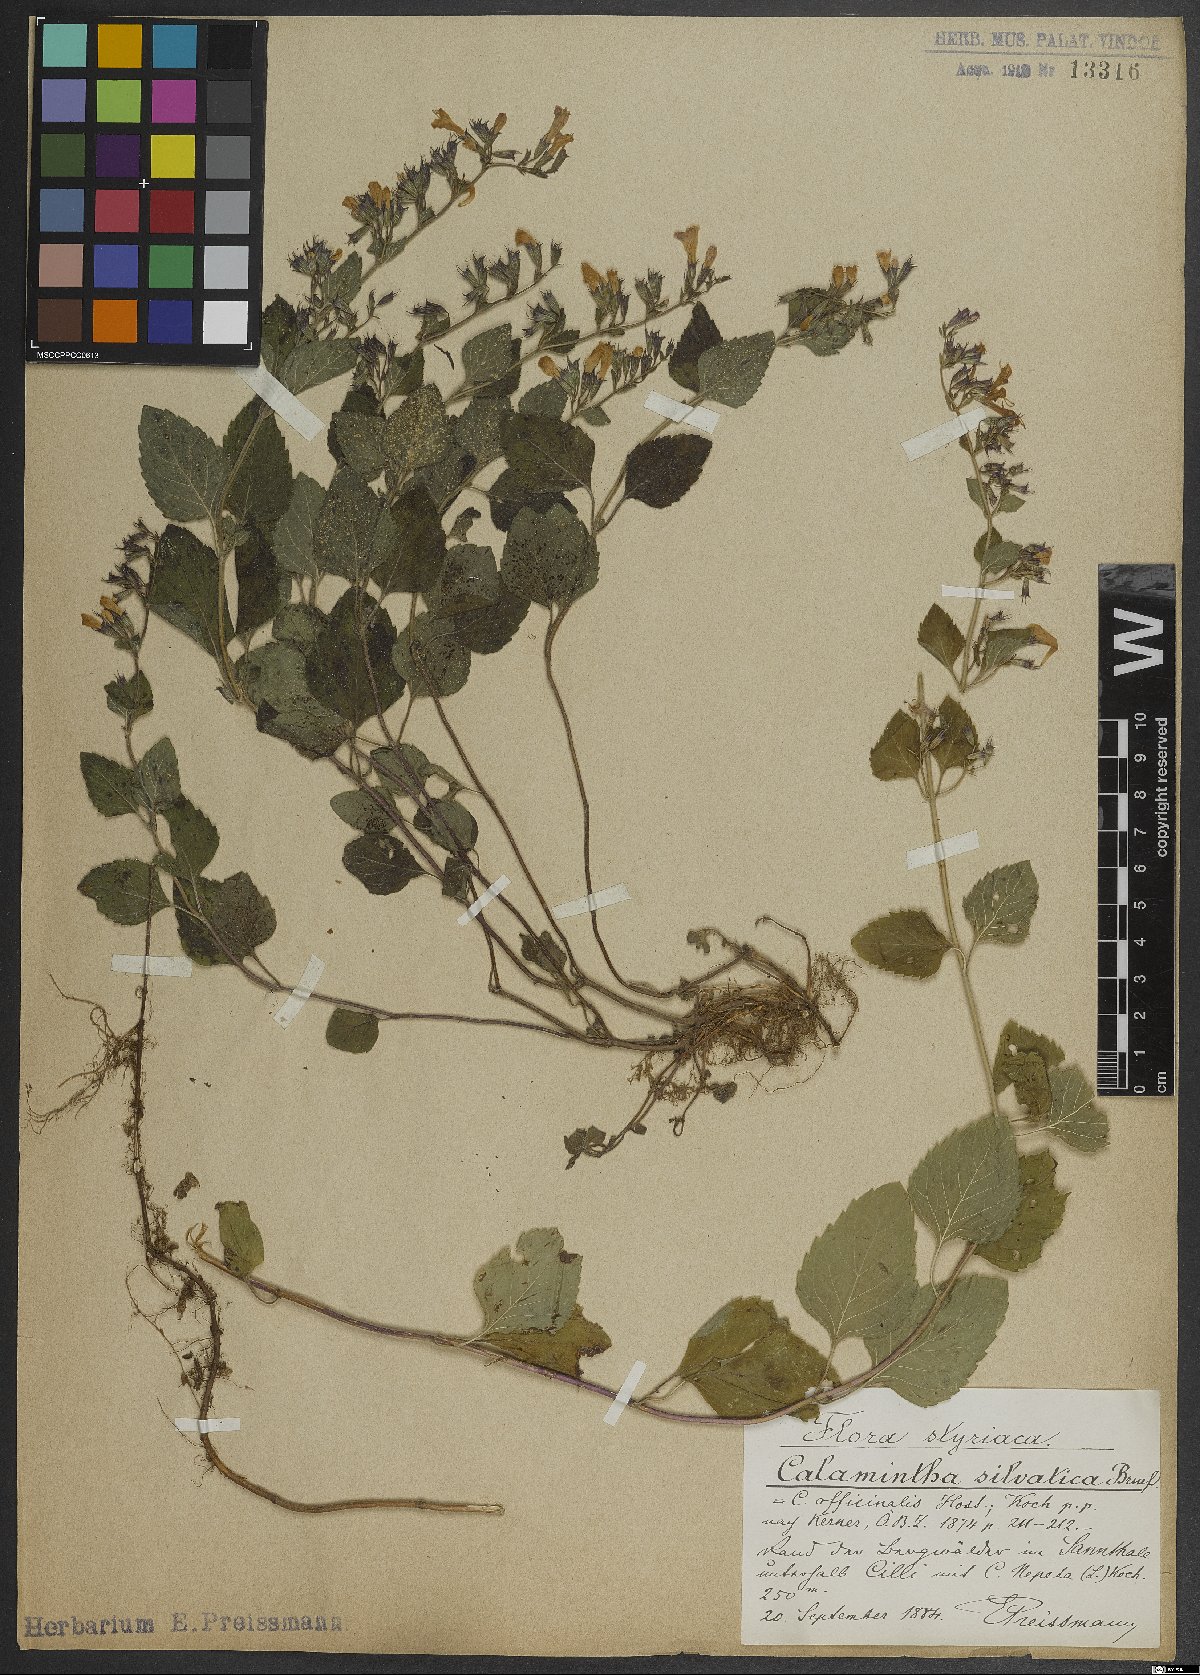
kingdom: Plantae
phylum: Tracheophyta
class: Magnoliopsida
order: Lamiales
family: Lamiaceae
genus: Clinopodium
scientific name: Clinopodium menthifolium
